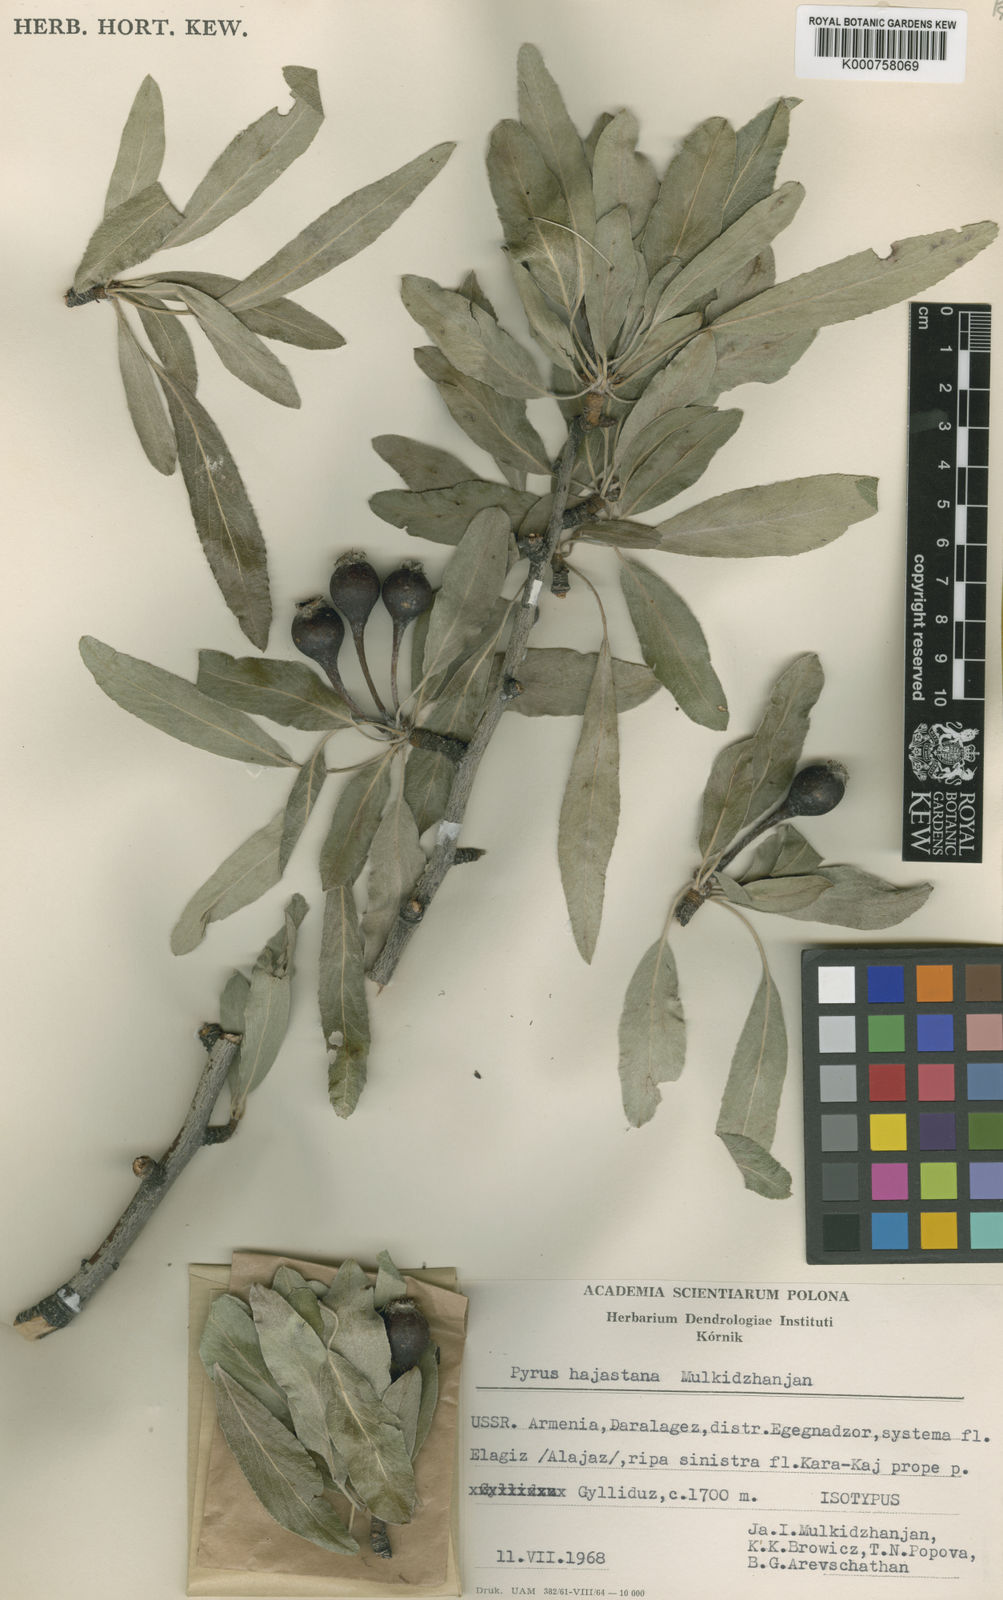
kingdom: Plantae
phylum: Tracheophyta
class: Magnoliopsida
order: Rosales
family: Rosaceae
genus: Pyrus
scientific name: Pyrus hajastana
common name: Hayastanyan pear
